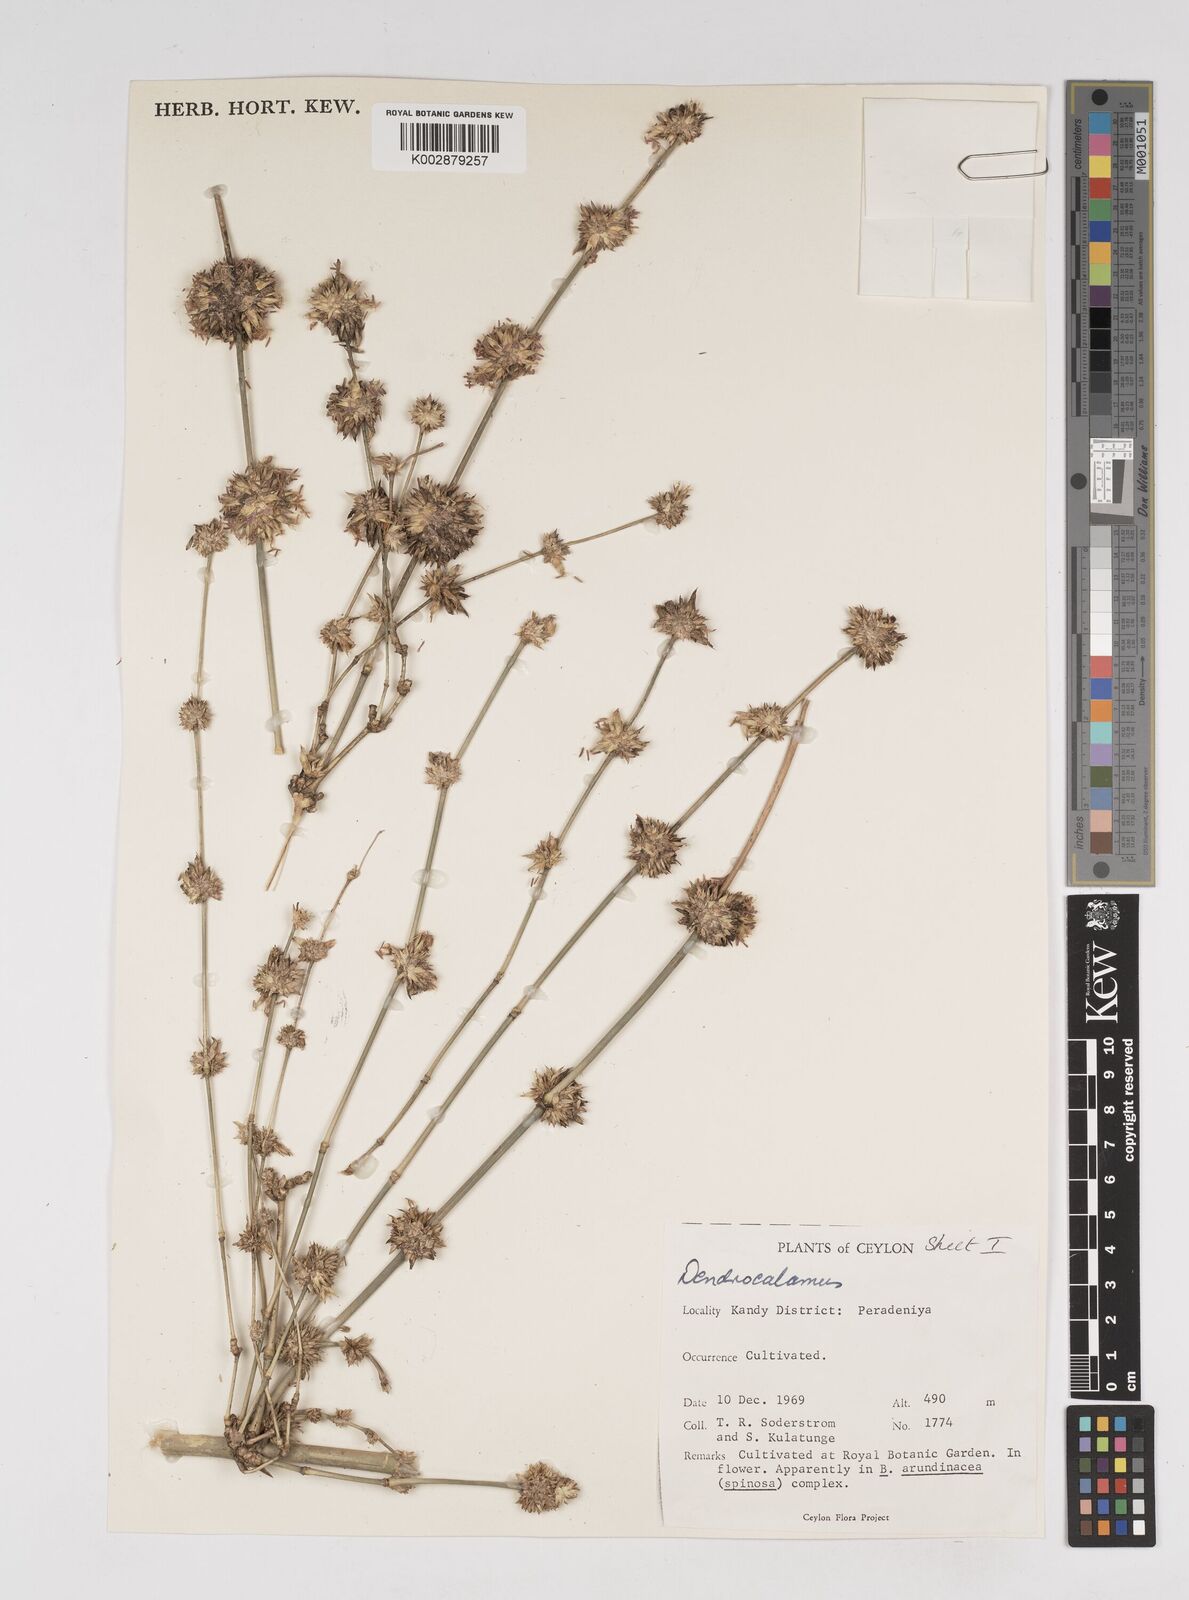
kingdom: Plantae
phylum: Tracheophyta
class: Liliopsida
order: Poales
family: Poaceae
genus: Dendrocalamus
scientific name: Dendrocalamus
